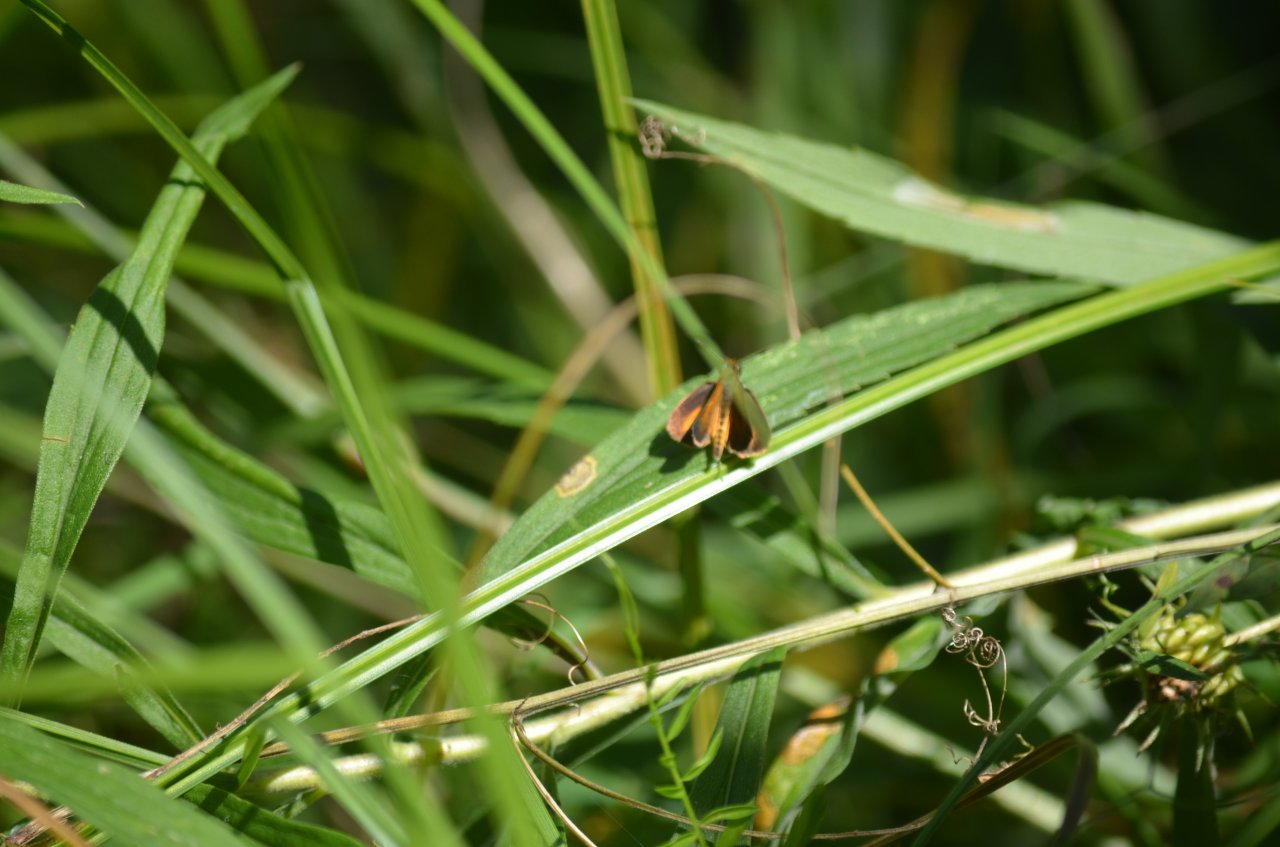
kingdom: Animalia
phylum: Arthropoda
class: Insecta
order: Lepidoptera
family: Hesperiidae
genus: Ancyloxypha
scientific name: Ancyloxypha numitor
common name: Least Skipper
